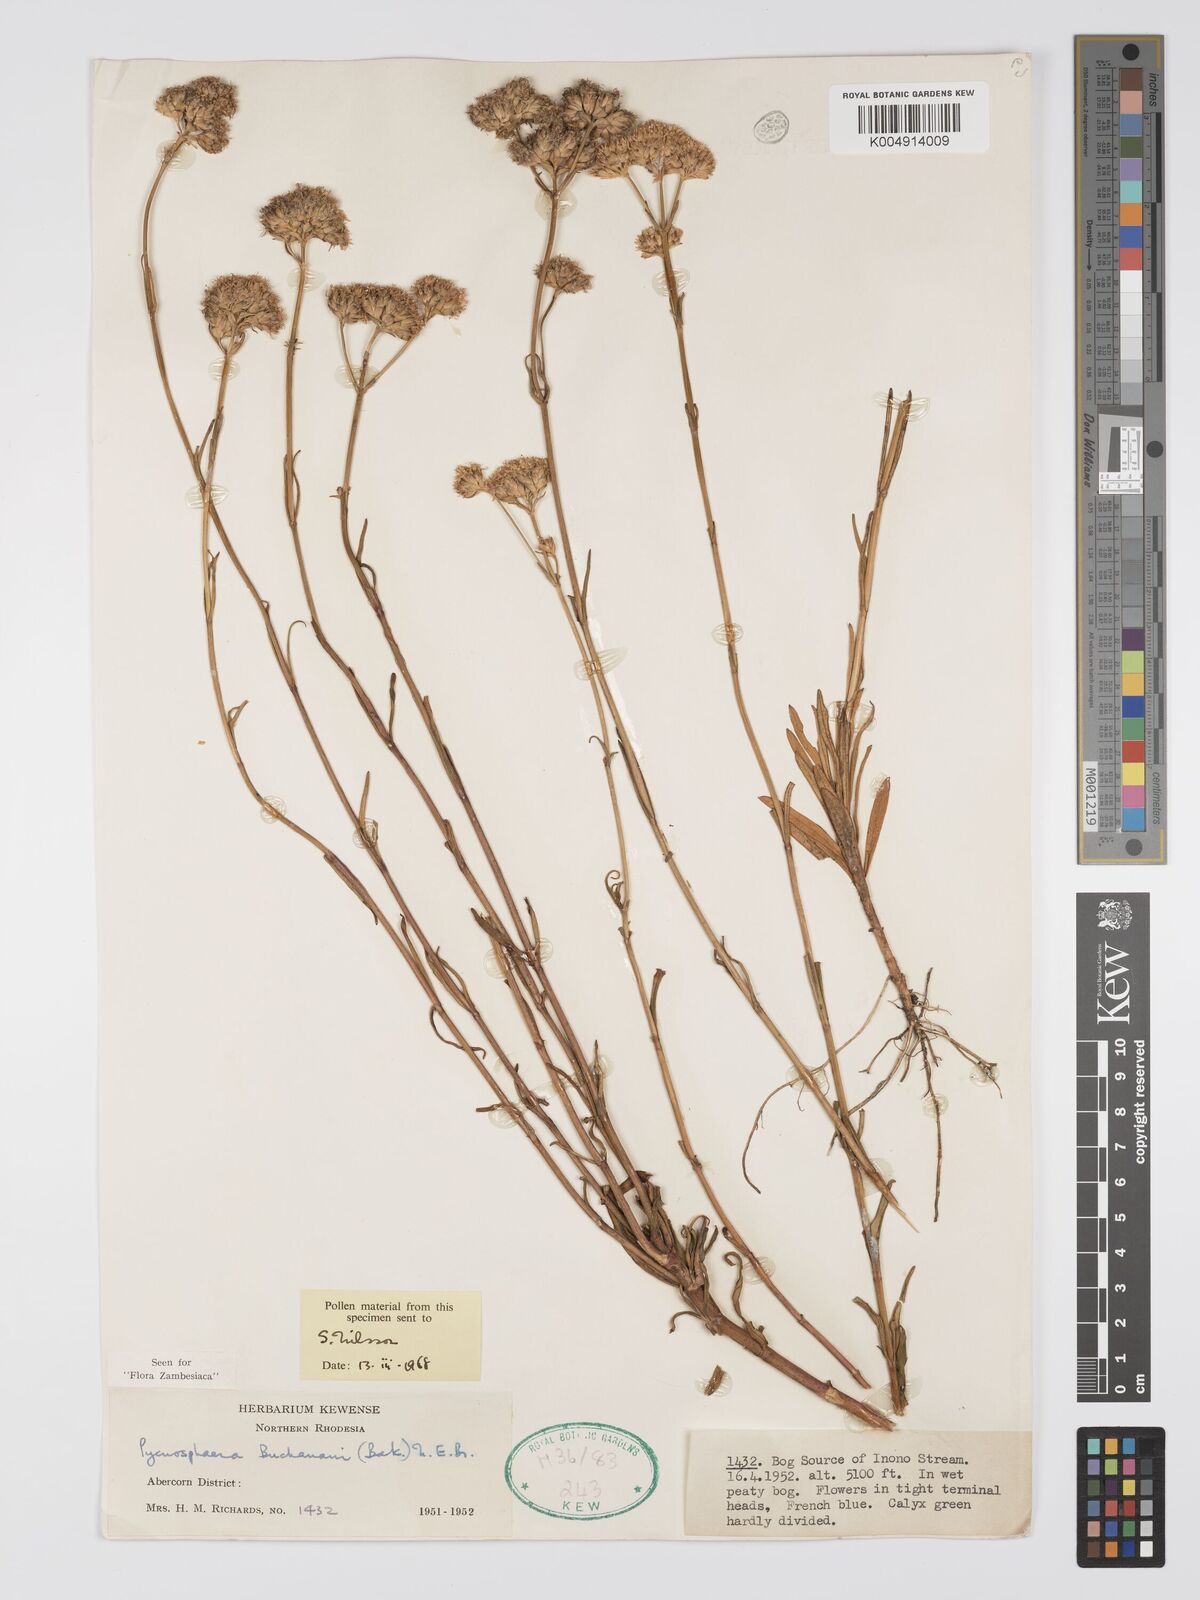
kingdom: Plantae
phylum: Tracheophyta
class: Magnoliopsida
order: Gentianales
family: Gentianaceae
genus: Pycnosphaera
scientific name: Pycnosphaera buchananii
